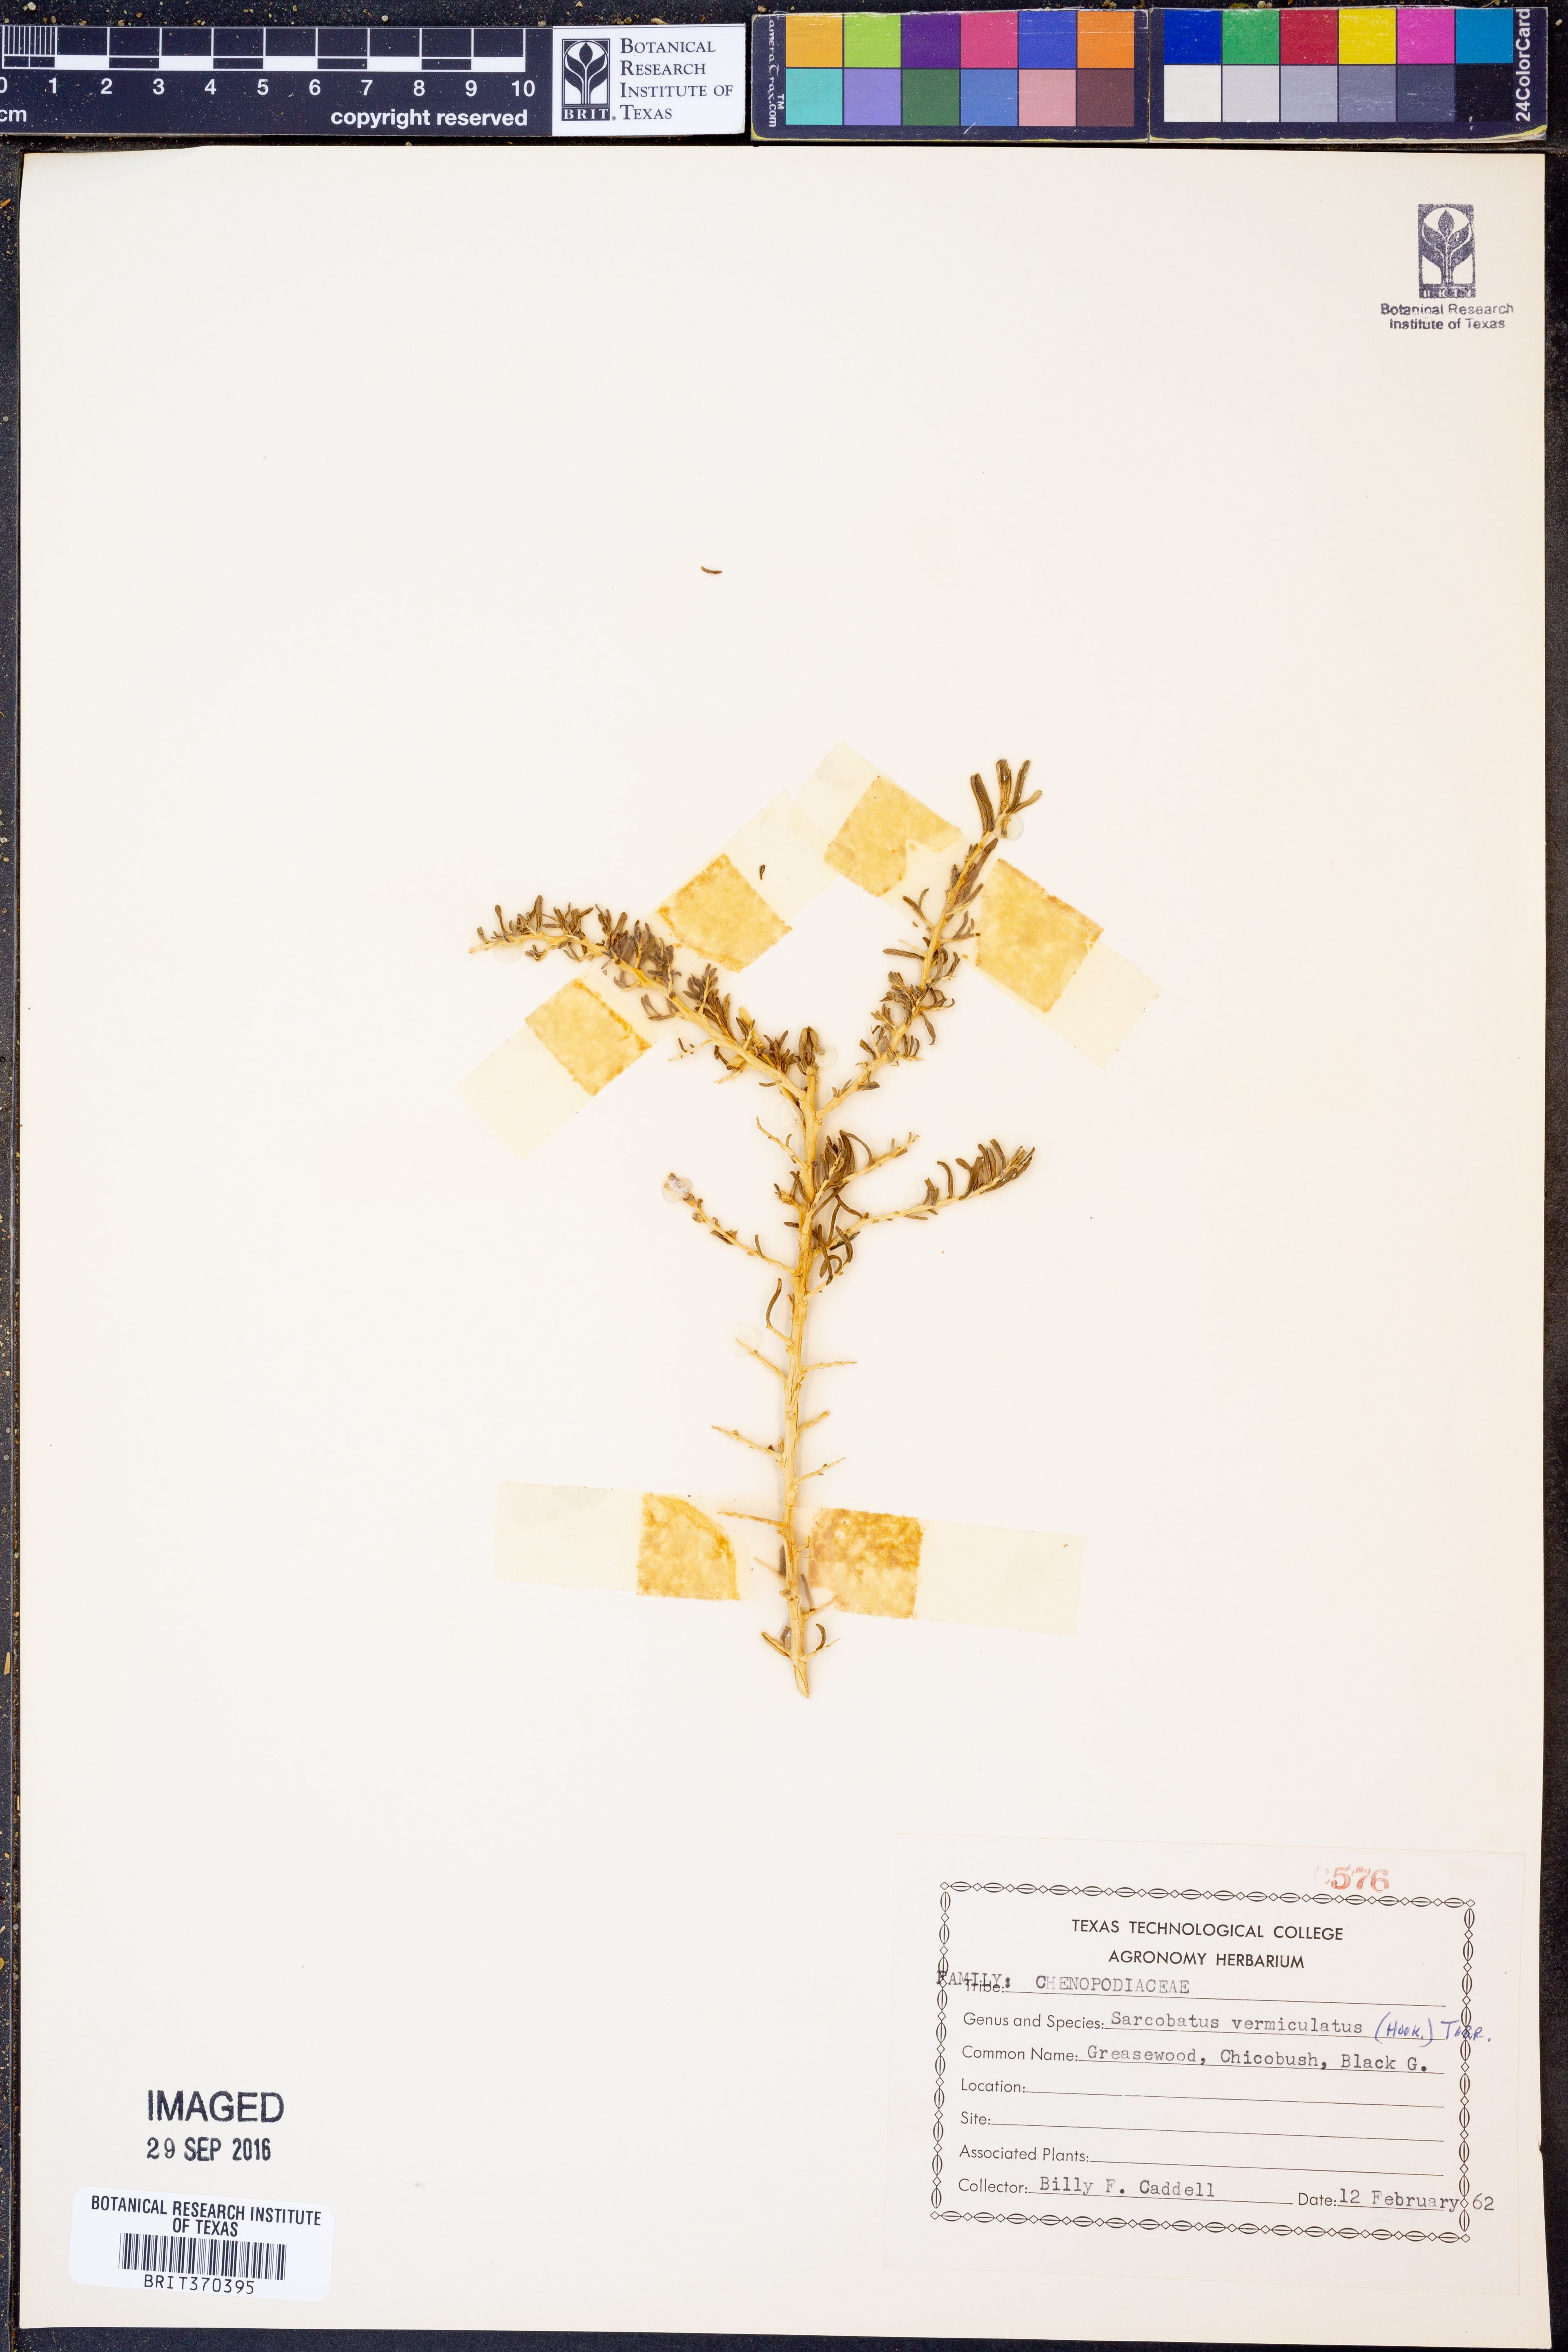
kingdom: Plantae
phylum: Tracheophyta
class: Magnoliopsida
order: Caryophyllales
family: Sarcobataceae
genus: Sarcobatus
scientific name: Sarcobatus vermiculatus
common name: Greasewood
